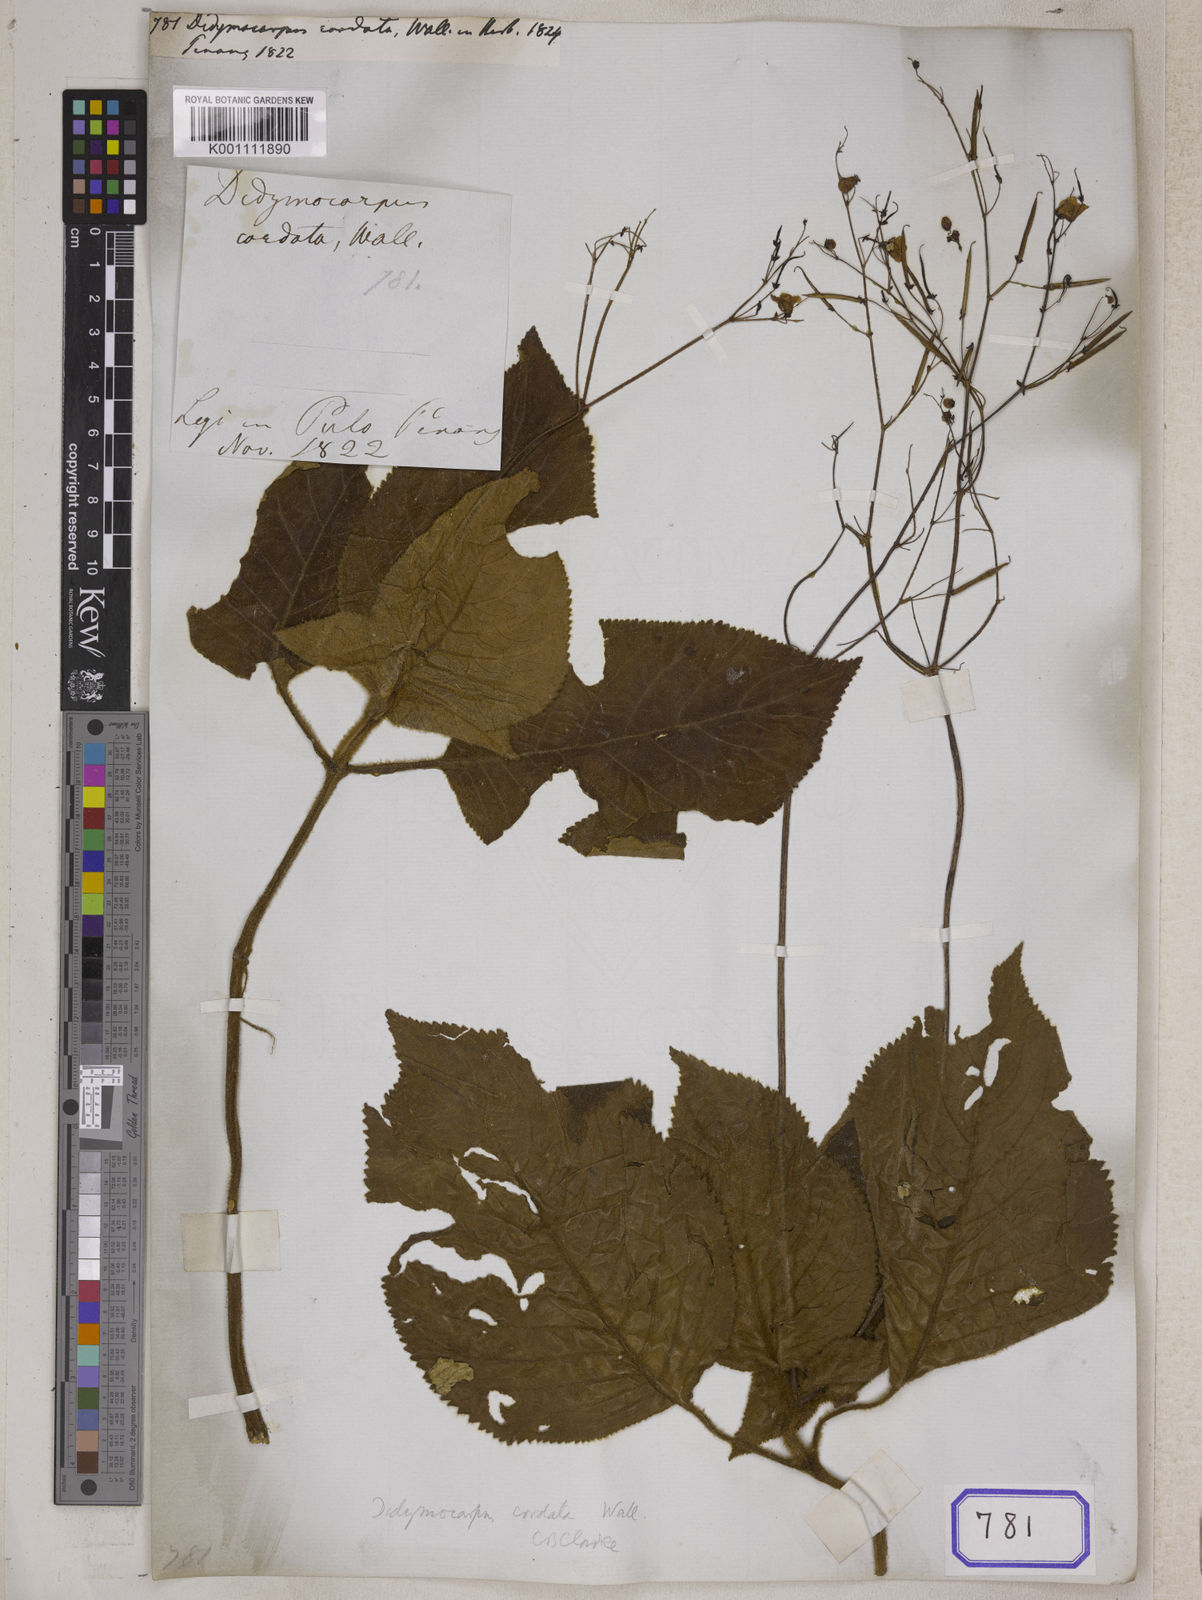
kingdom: Plantae
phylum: Tracheophyta
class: Magnoliopsida
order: Lamiales
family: Gesneriaceae
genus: Didymocarpus
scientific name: Didymocarpus
